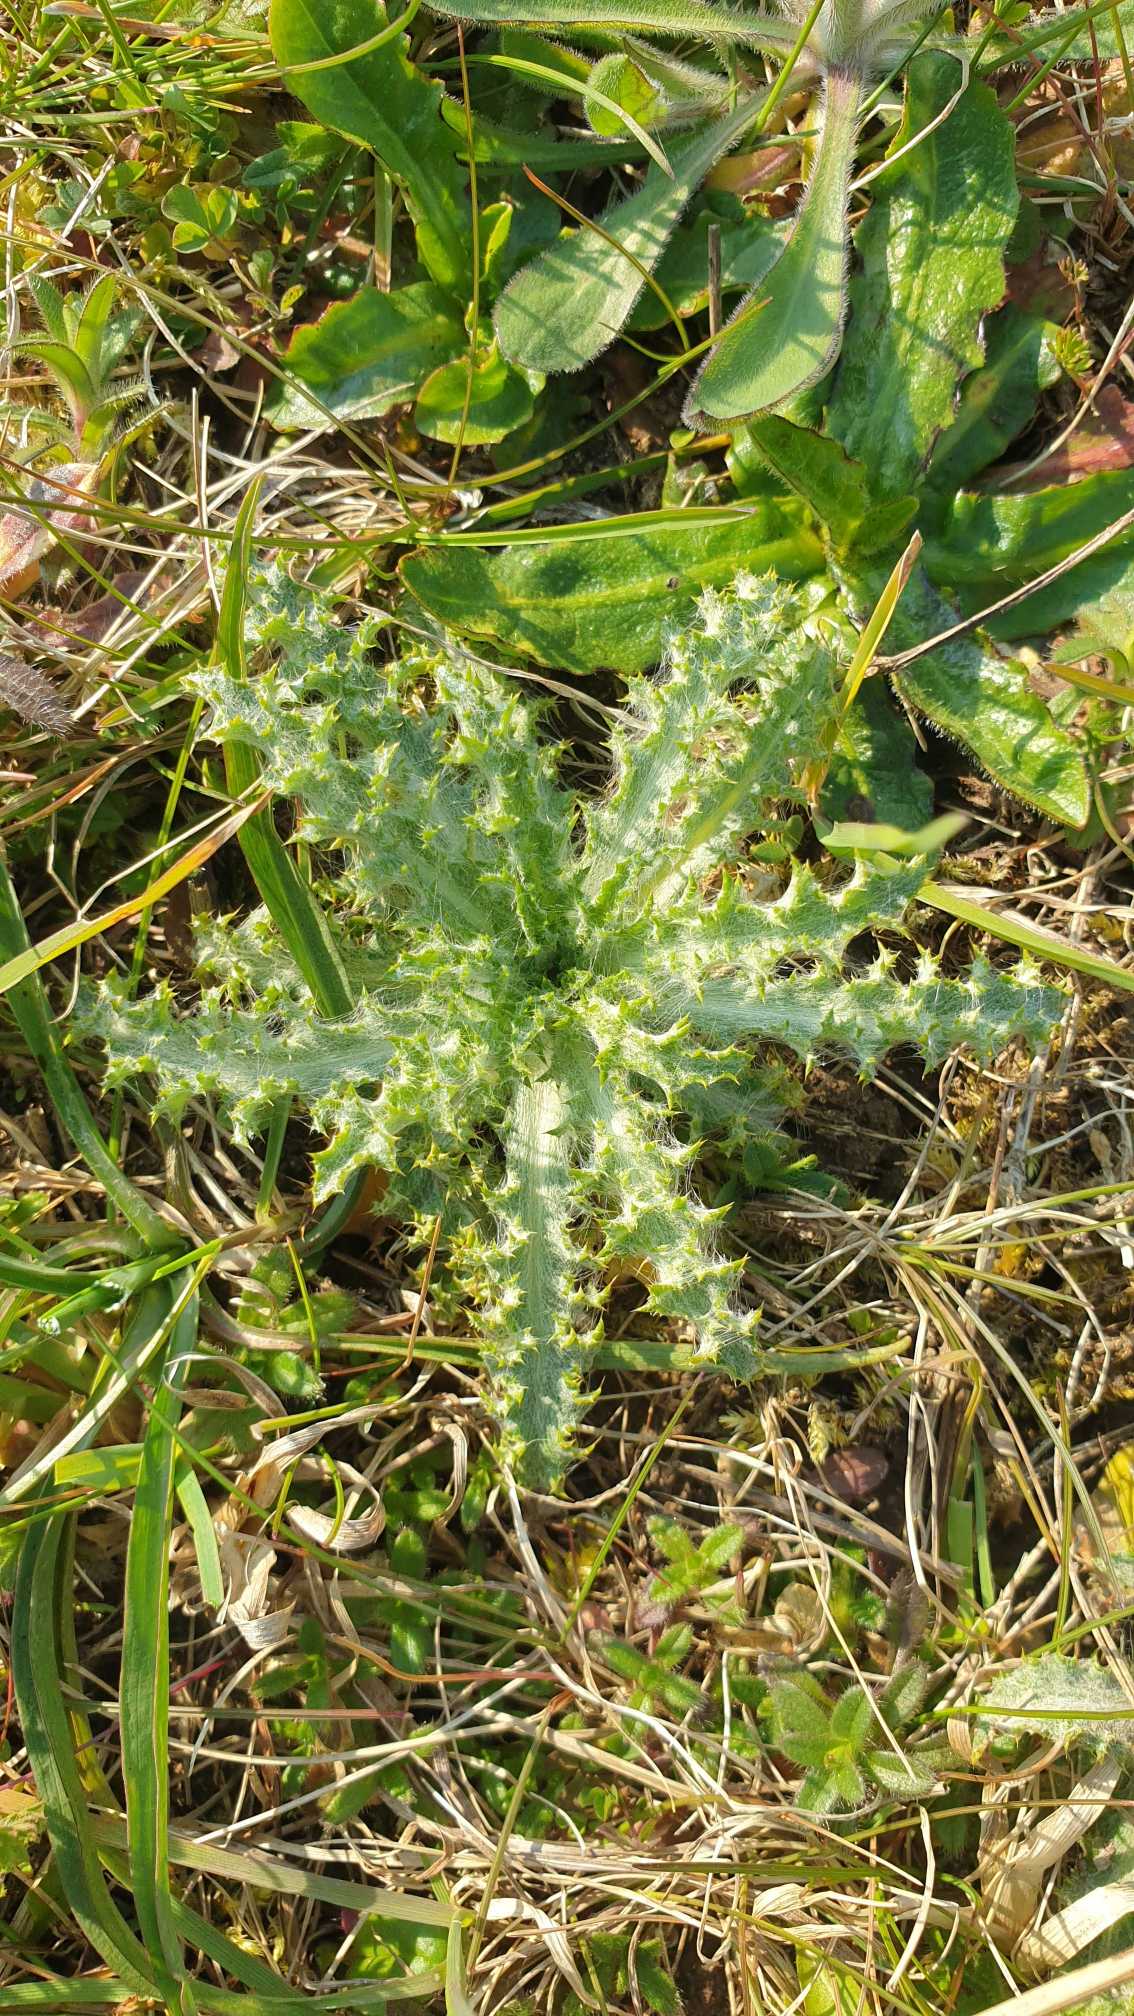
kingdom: Plantae
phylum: Tracheophyta
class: Magnoliopsida
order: Asterales
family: Asteraceae
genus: Carlina
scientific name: Carlina vulgaris
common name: Bakketidsel
